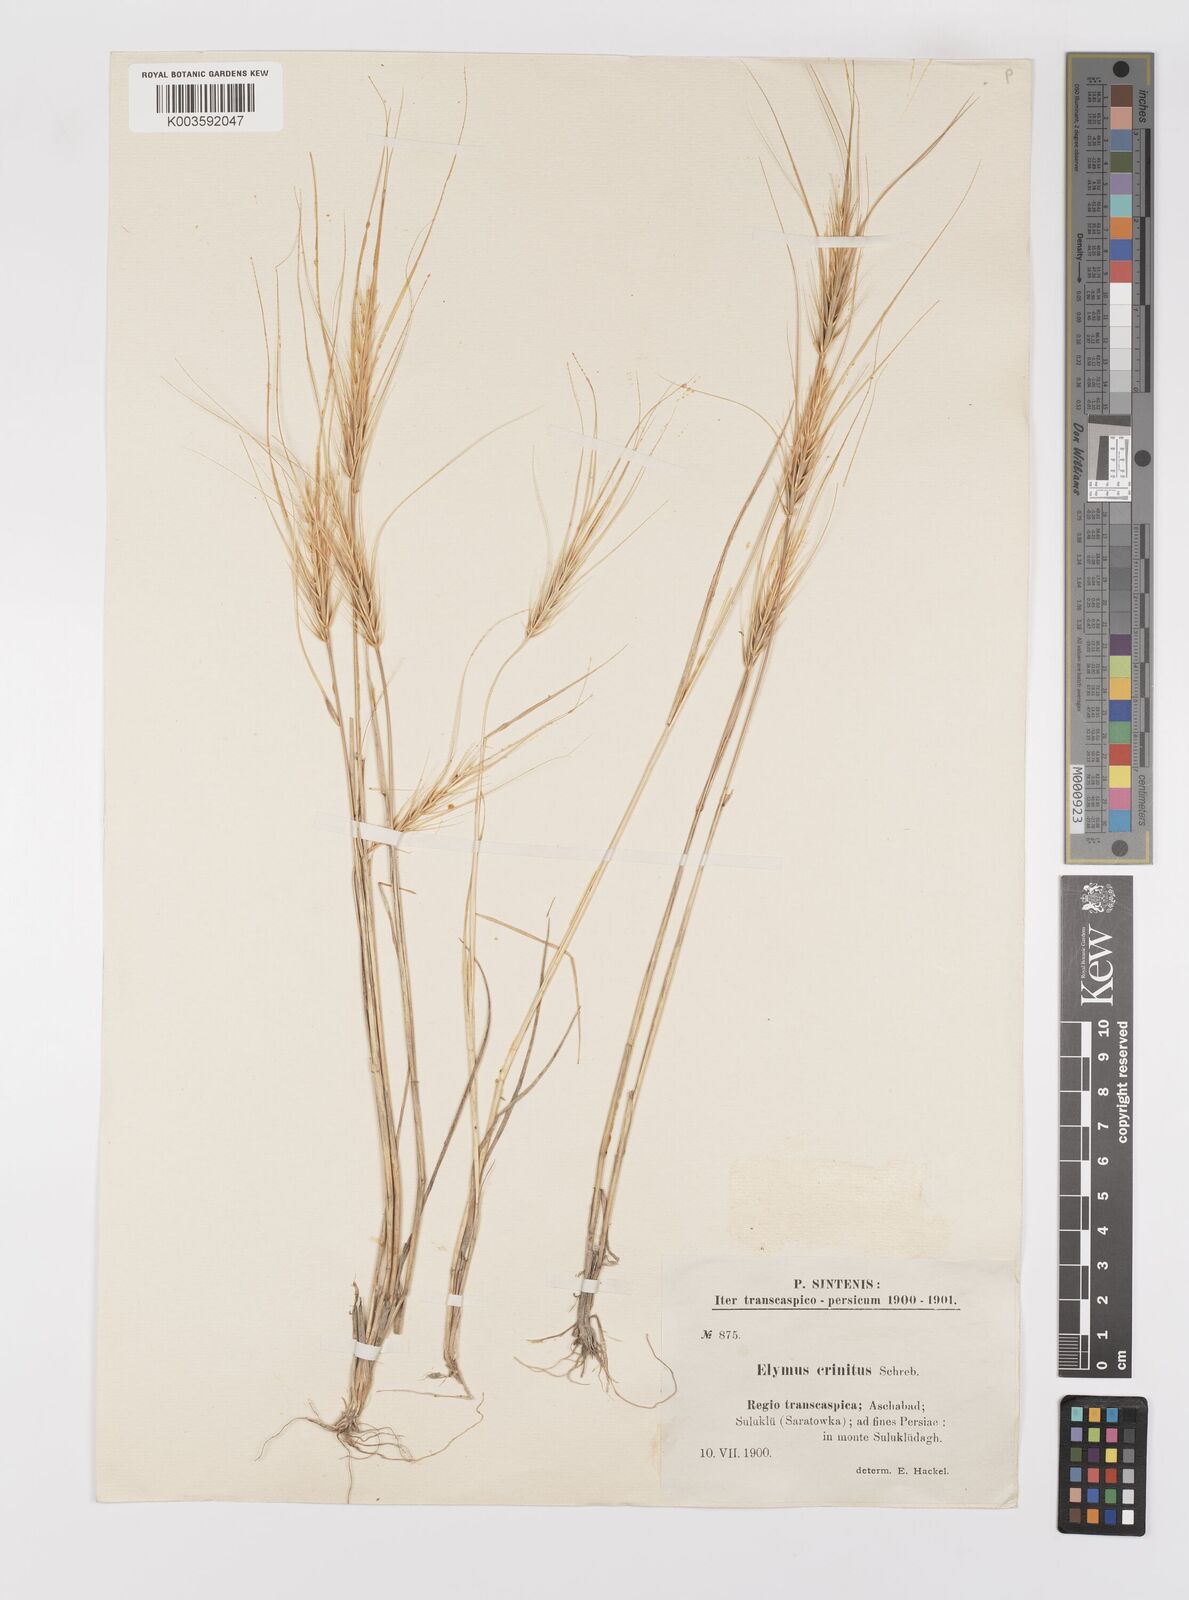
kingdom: Plantae
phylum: Tracheophyta
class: Liliopsida
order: Poales
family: Poaceae
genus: Taeniatherum
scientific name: Taeniatherum caput-medusae
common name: Medusahead
